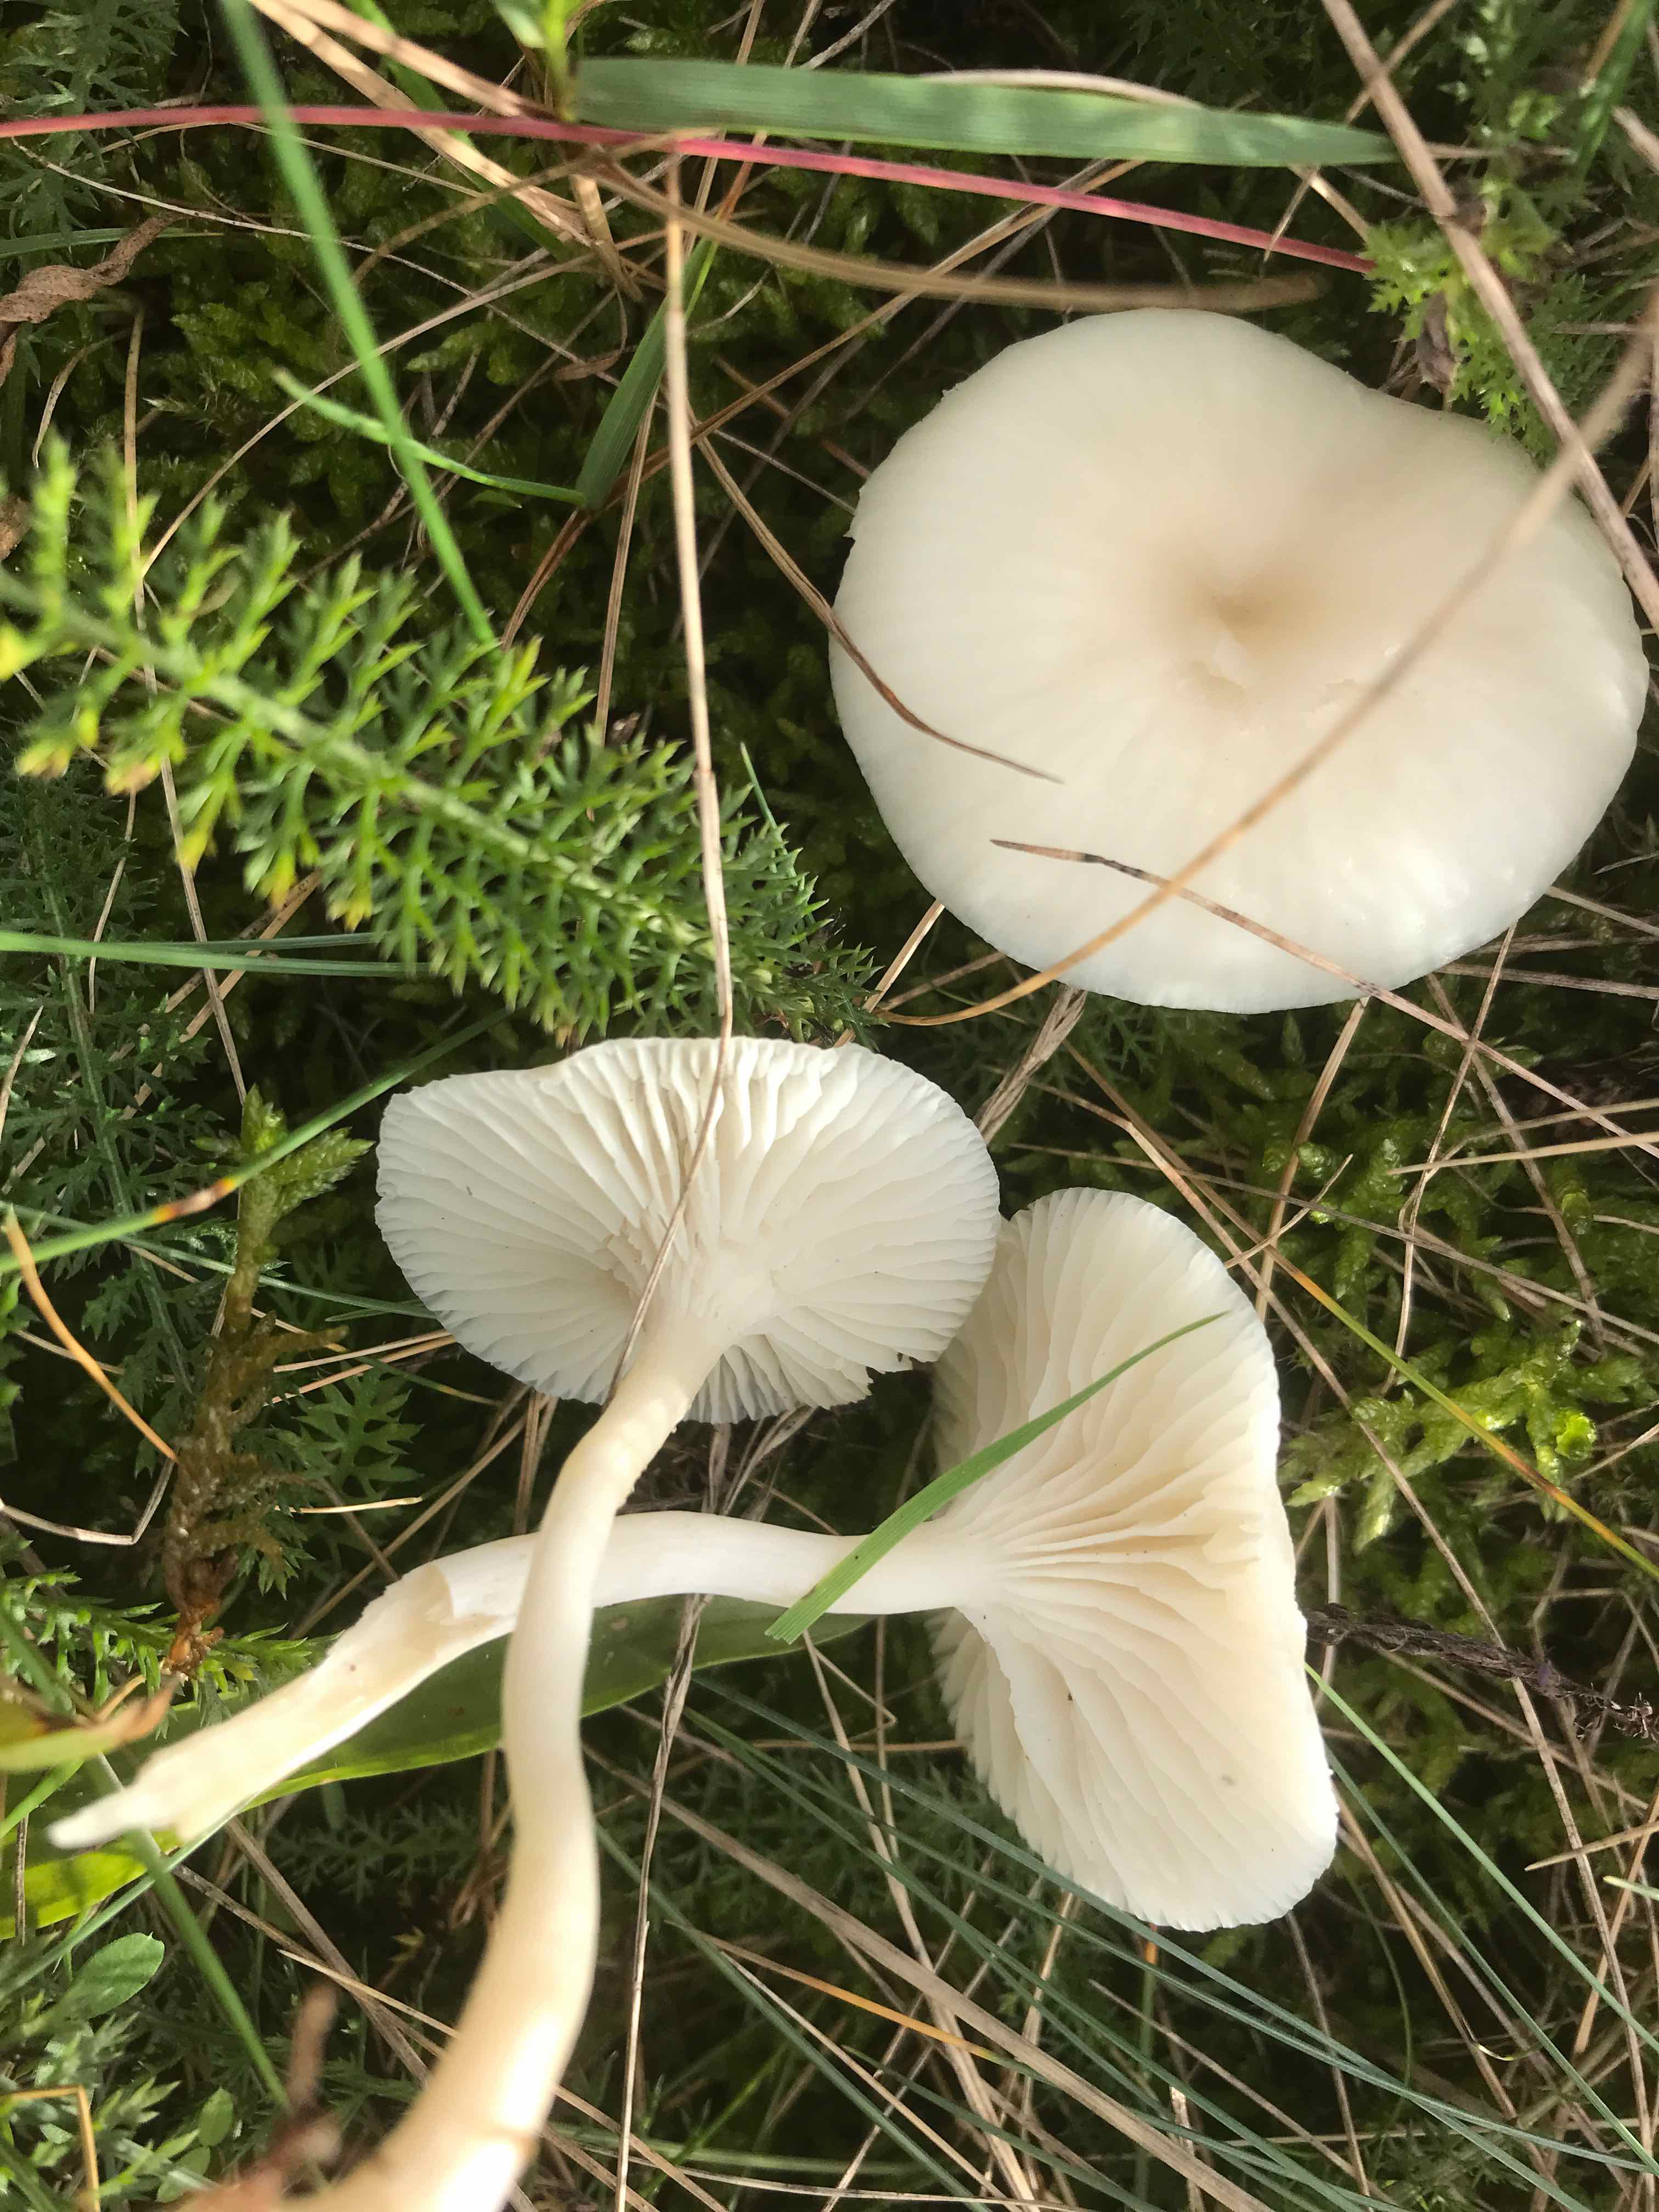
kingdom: Fungi
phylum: Basidiomycota
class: Agaricomycetes
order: Agaricales
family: Hygrophoraceae
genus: Cuphophyllus
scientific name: Cuphophyllus virgineus
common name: snehvid vokshat
